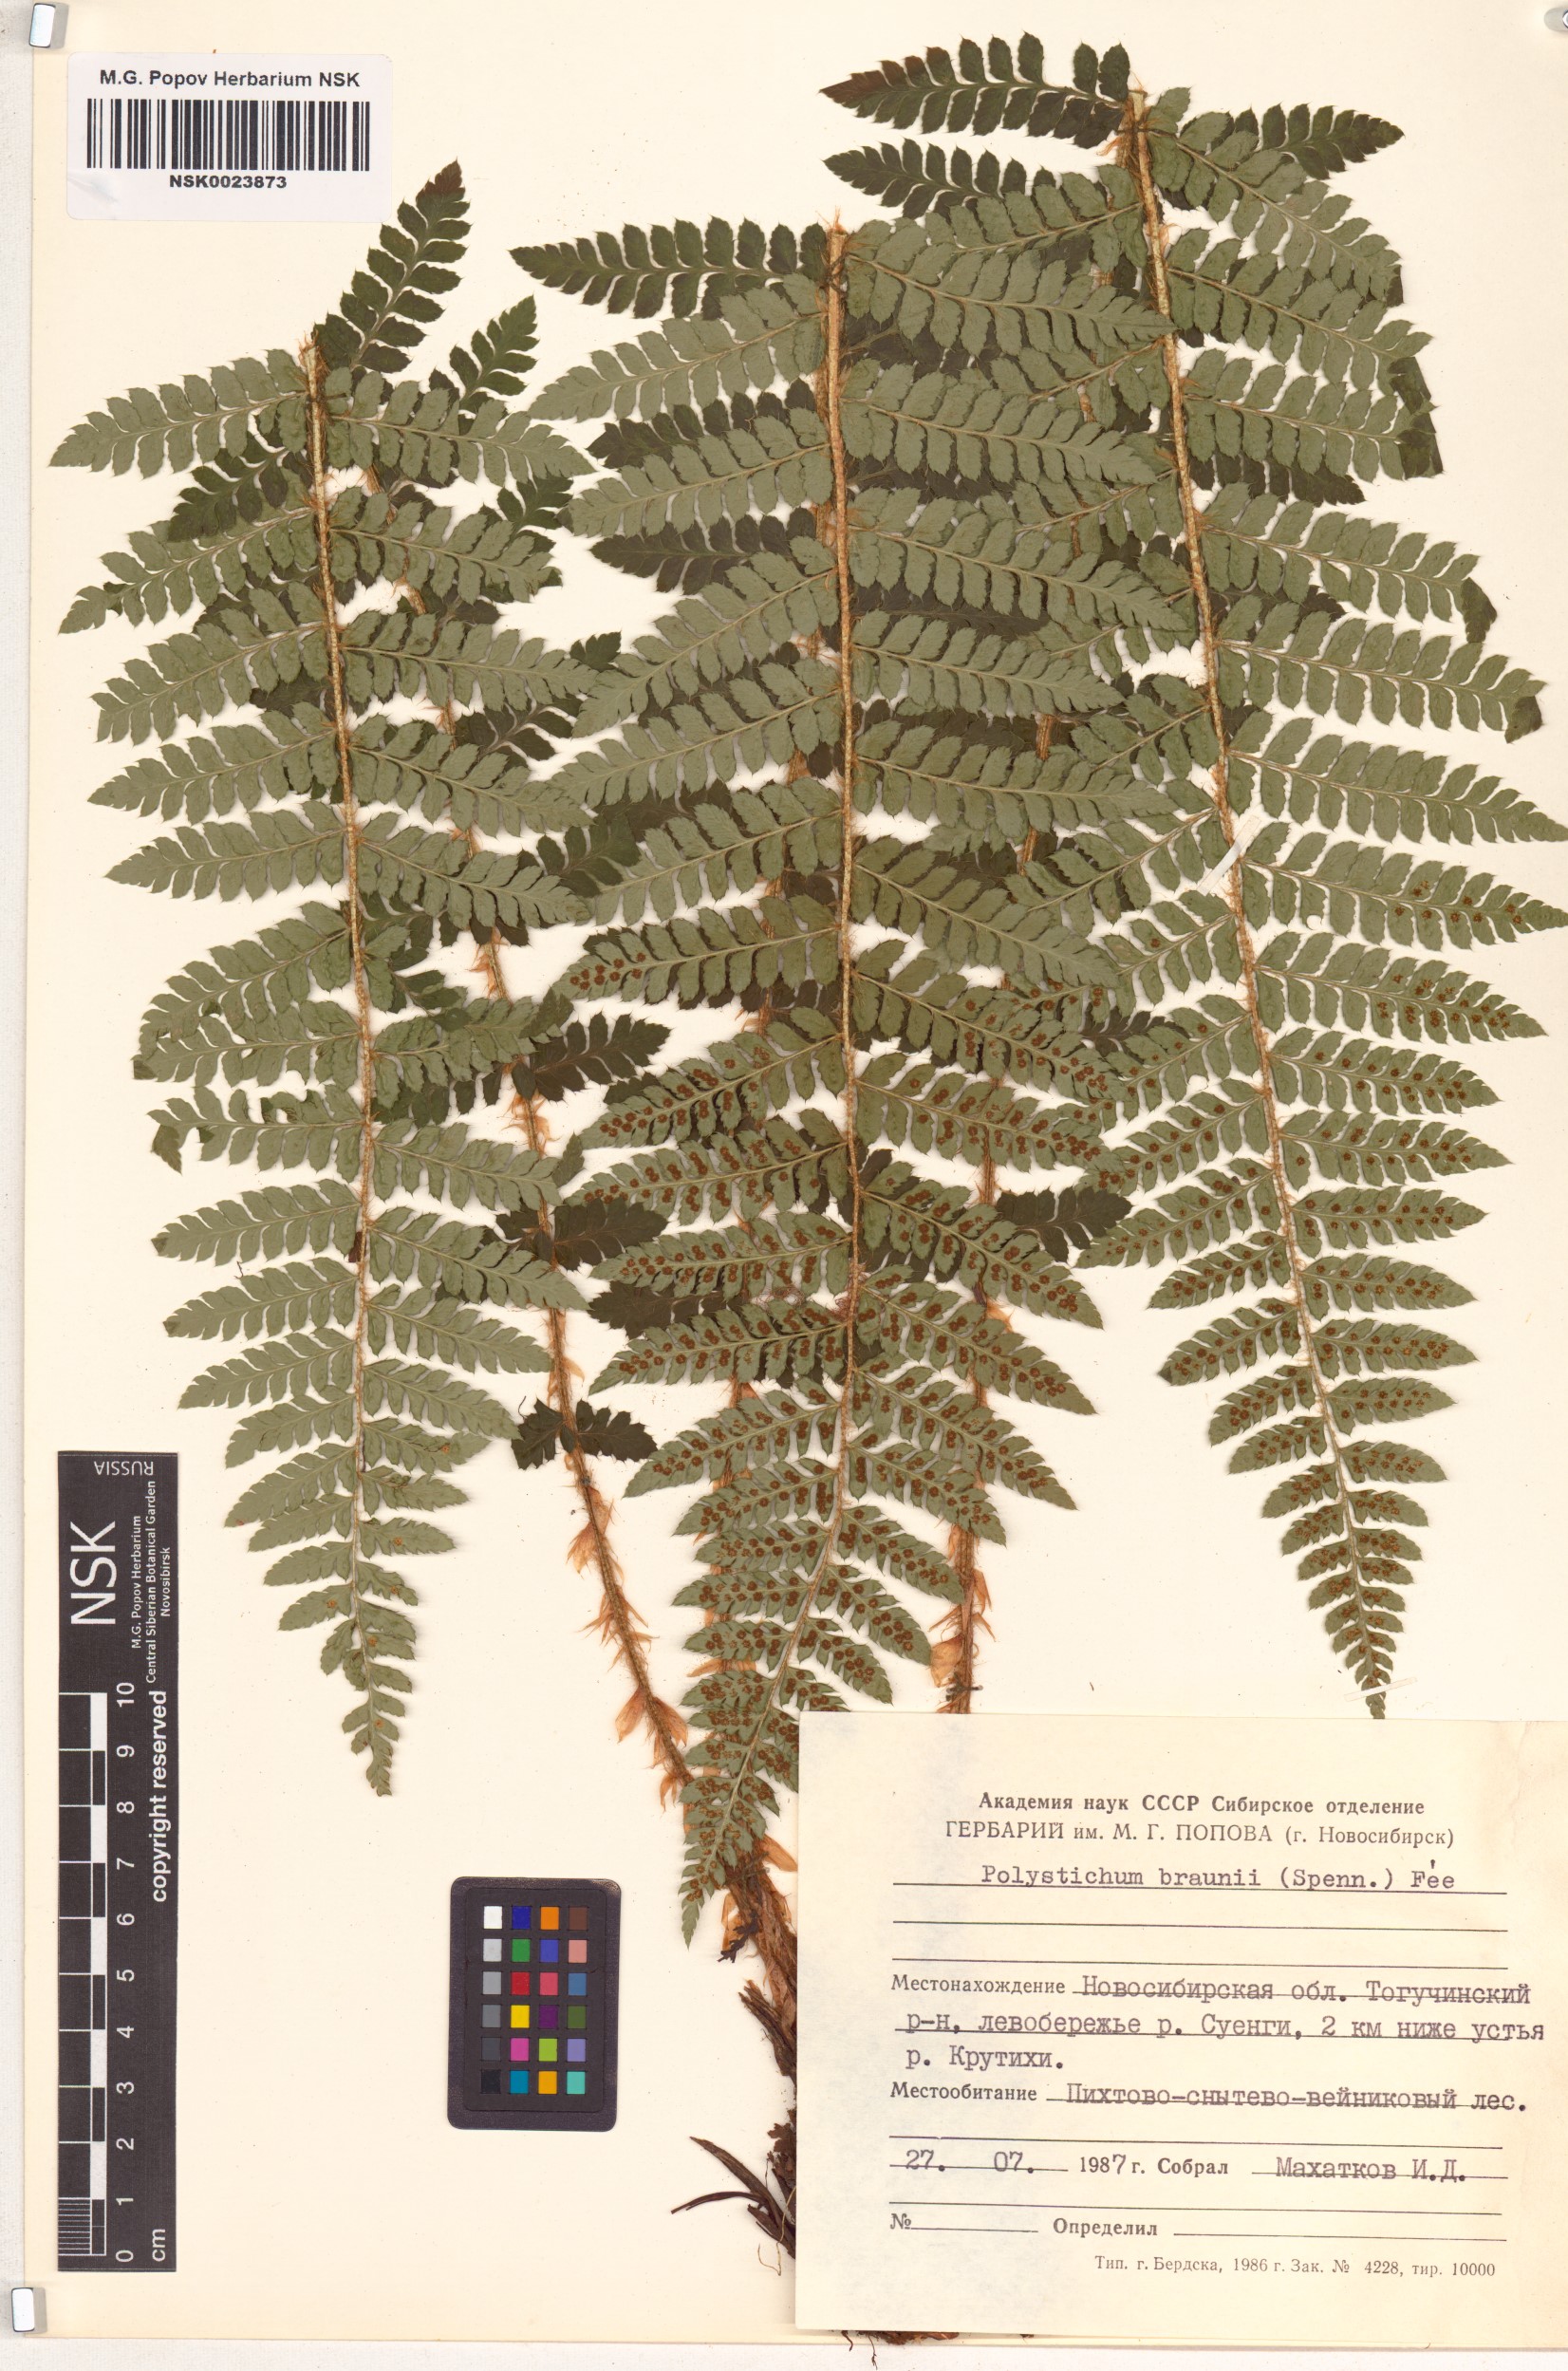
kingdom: Plantae
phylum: Tracheophyta
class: Polypodiopsida
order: Polypodiales
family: Dryopteridaceae
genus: Polystichum
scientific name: Polystichum braunii
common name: Braun's holly fern
